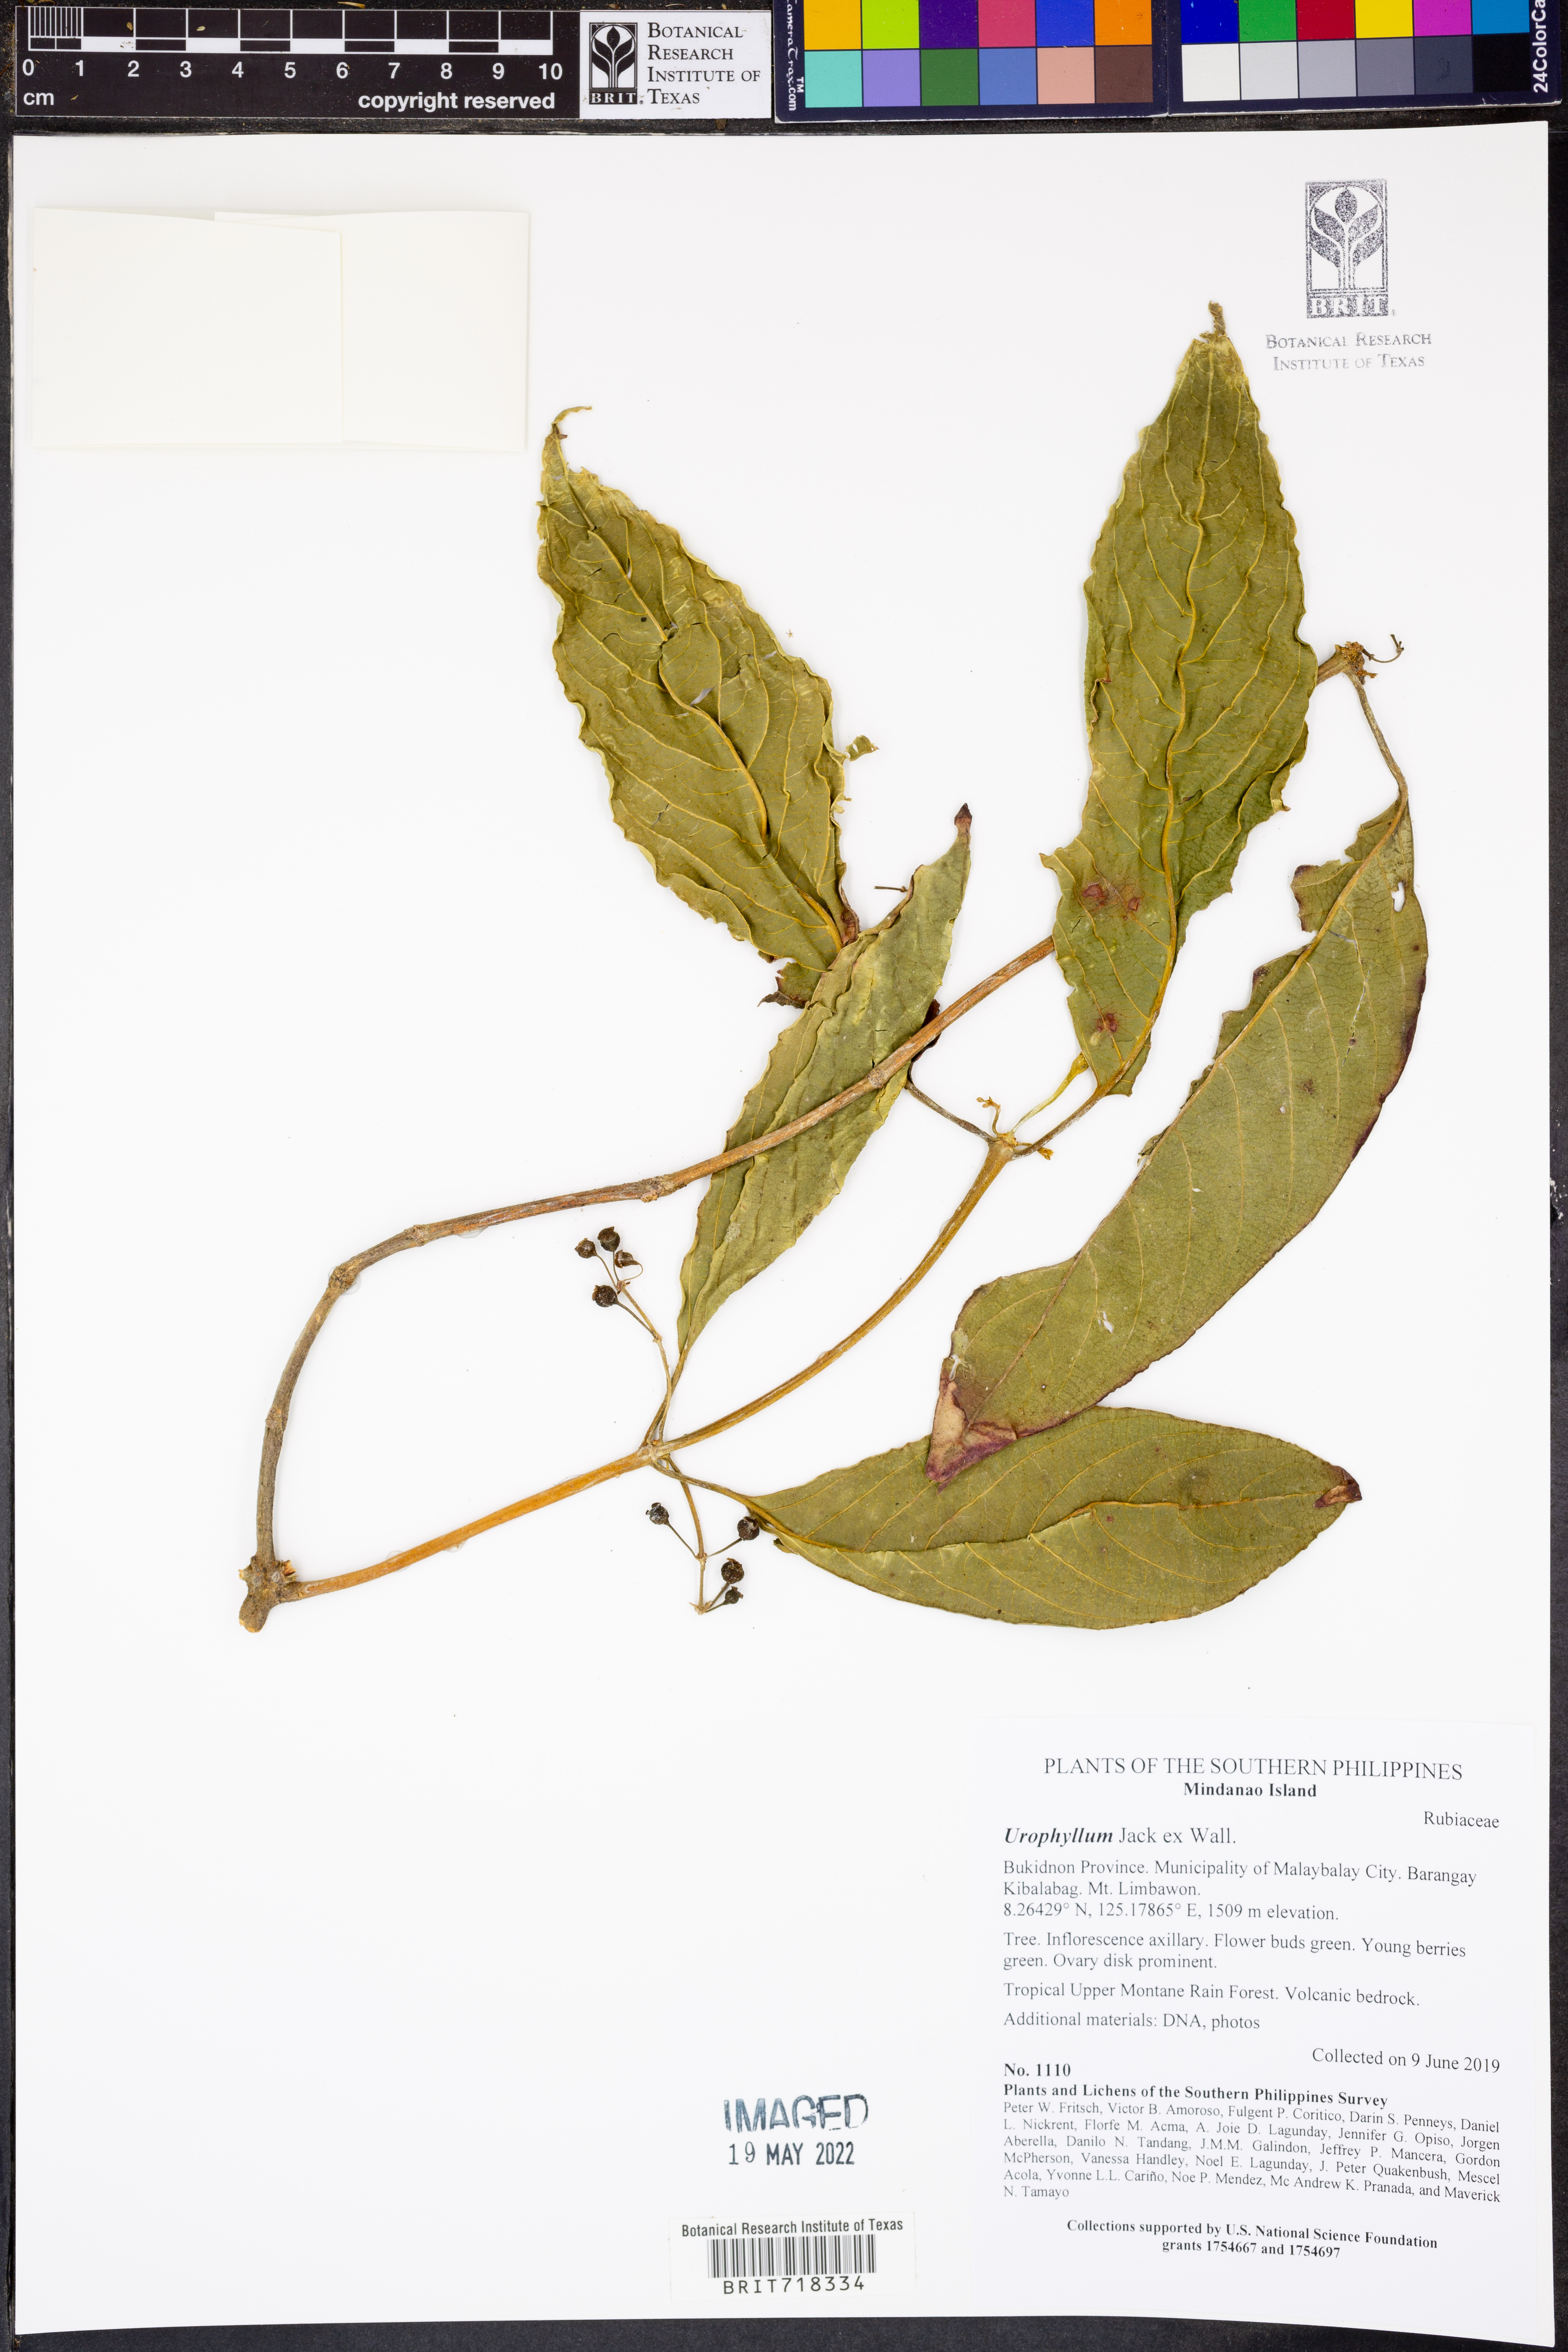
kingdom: Plantae
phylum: Tracheophyta
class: Magnoliopsida
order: Gentianales
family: Rubiaceae
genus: Urophyllum
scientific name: Urophyllum
